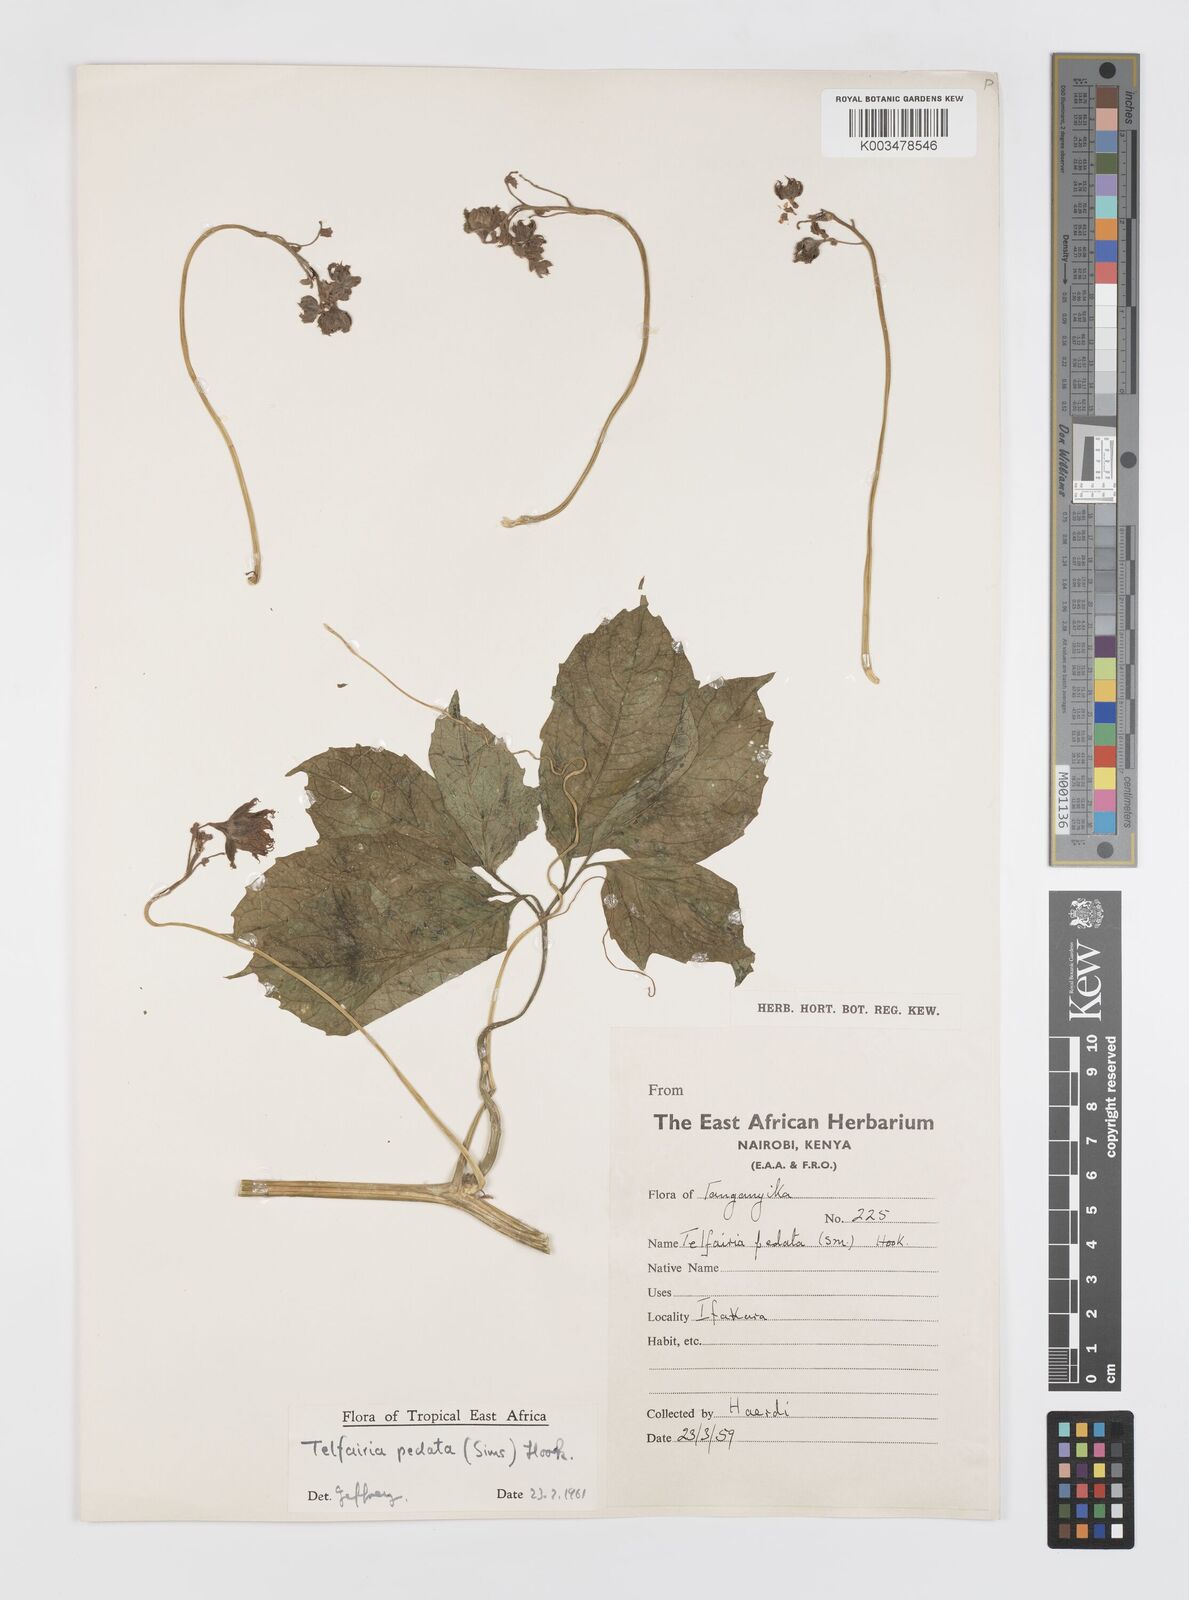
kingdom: Plantae
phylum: Tracheophyta
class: Magnoliopsida
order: Cucurbitales
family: Cucurbitaceae
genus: Telfairia
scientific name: Telfairia pedata
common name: Zanzibar oilvine
